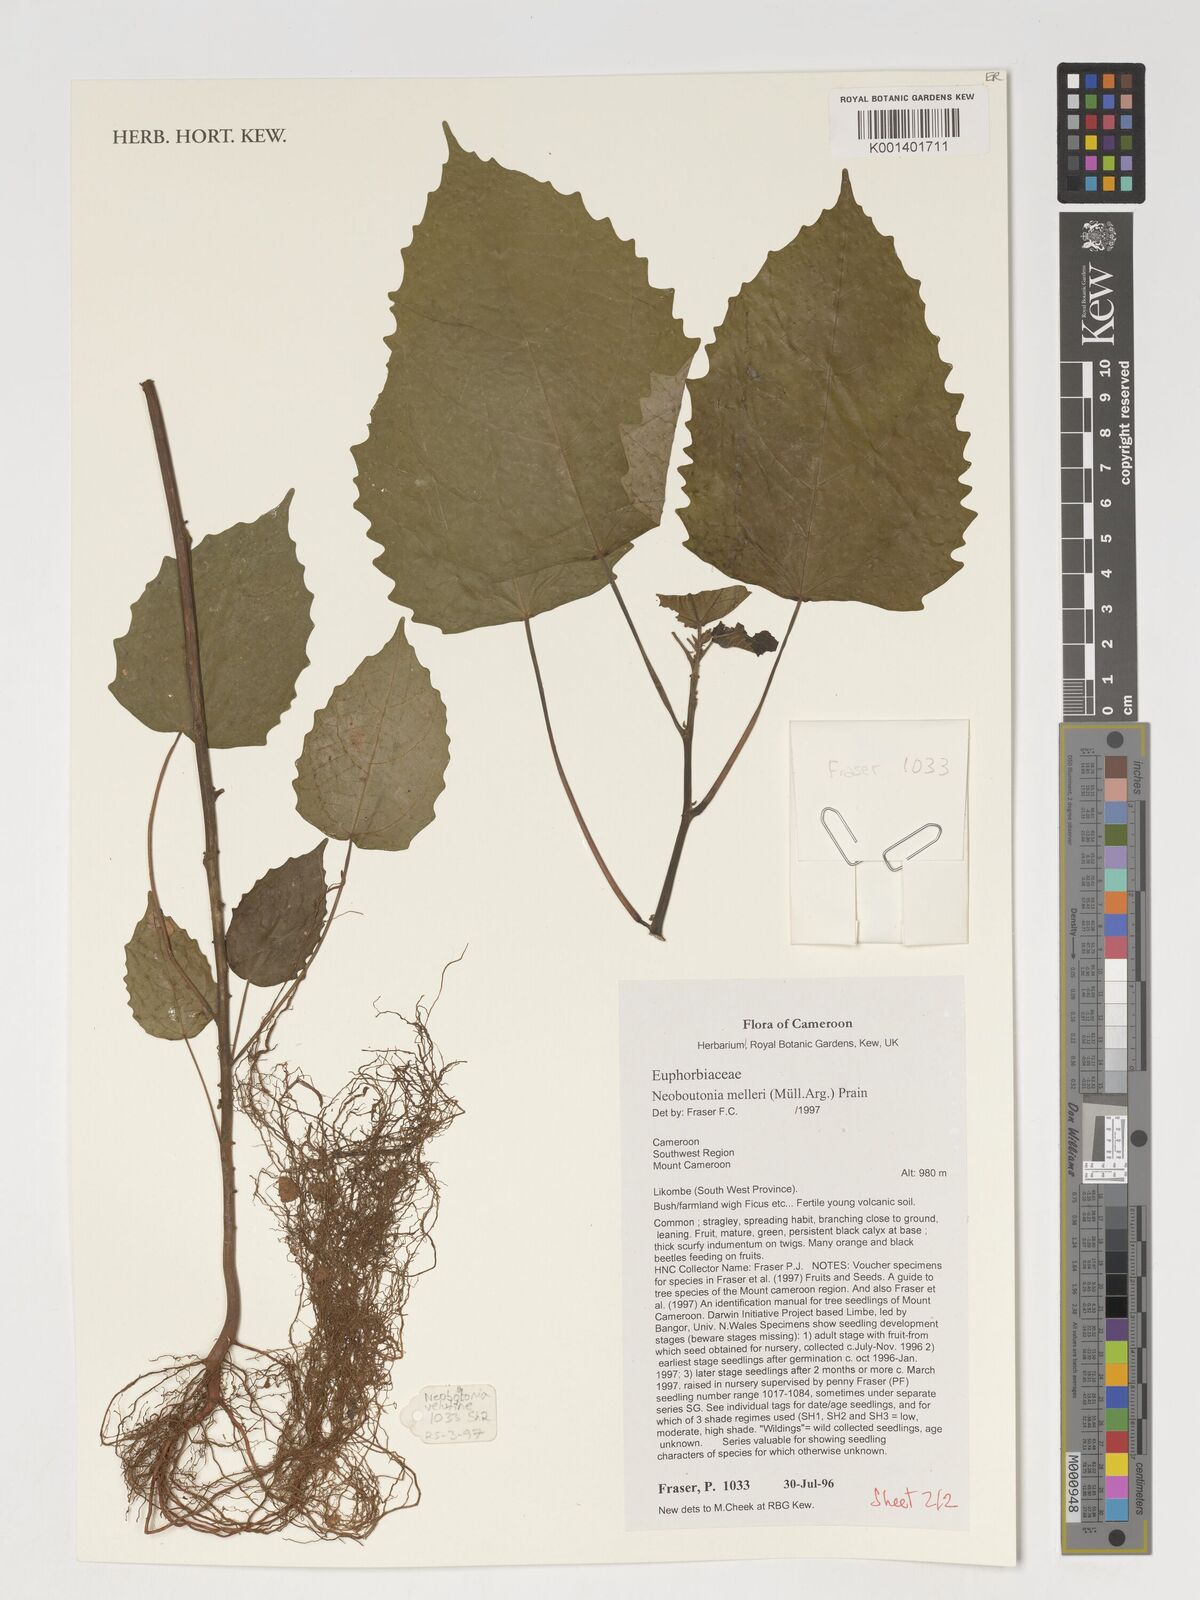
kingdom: Plantae
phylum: Tracheophyta
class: Magnoliopsida
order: Malpighiales
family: Euphorbiaceae
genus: Neoboutonia
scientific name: Neoboutonia melleri
